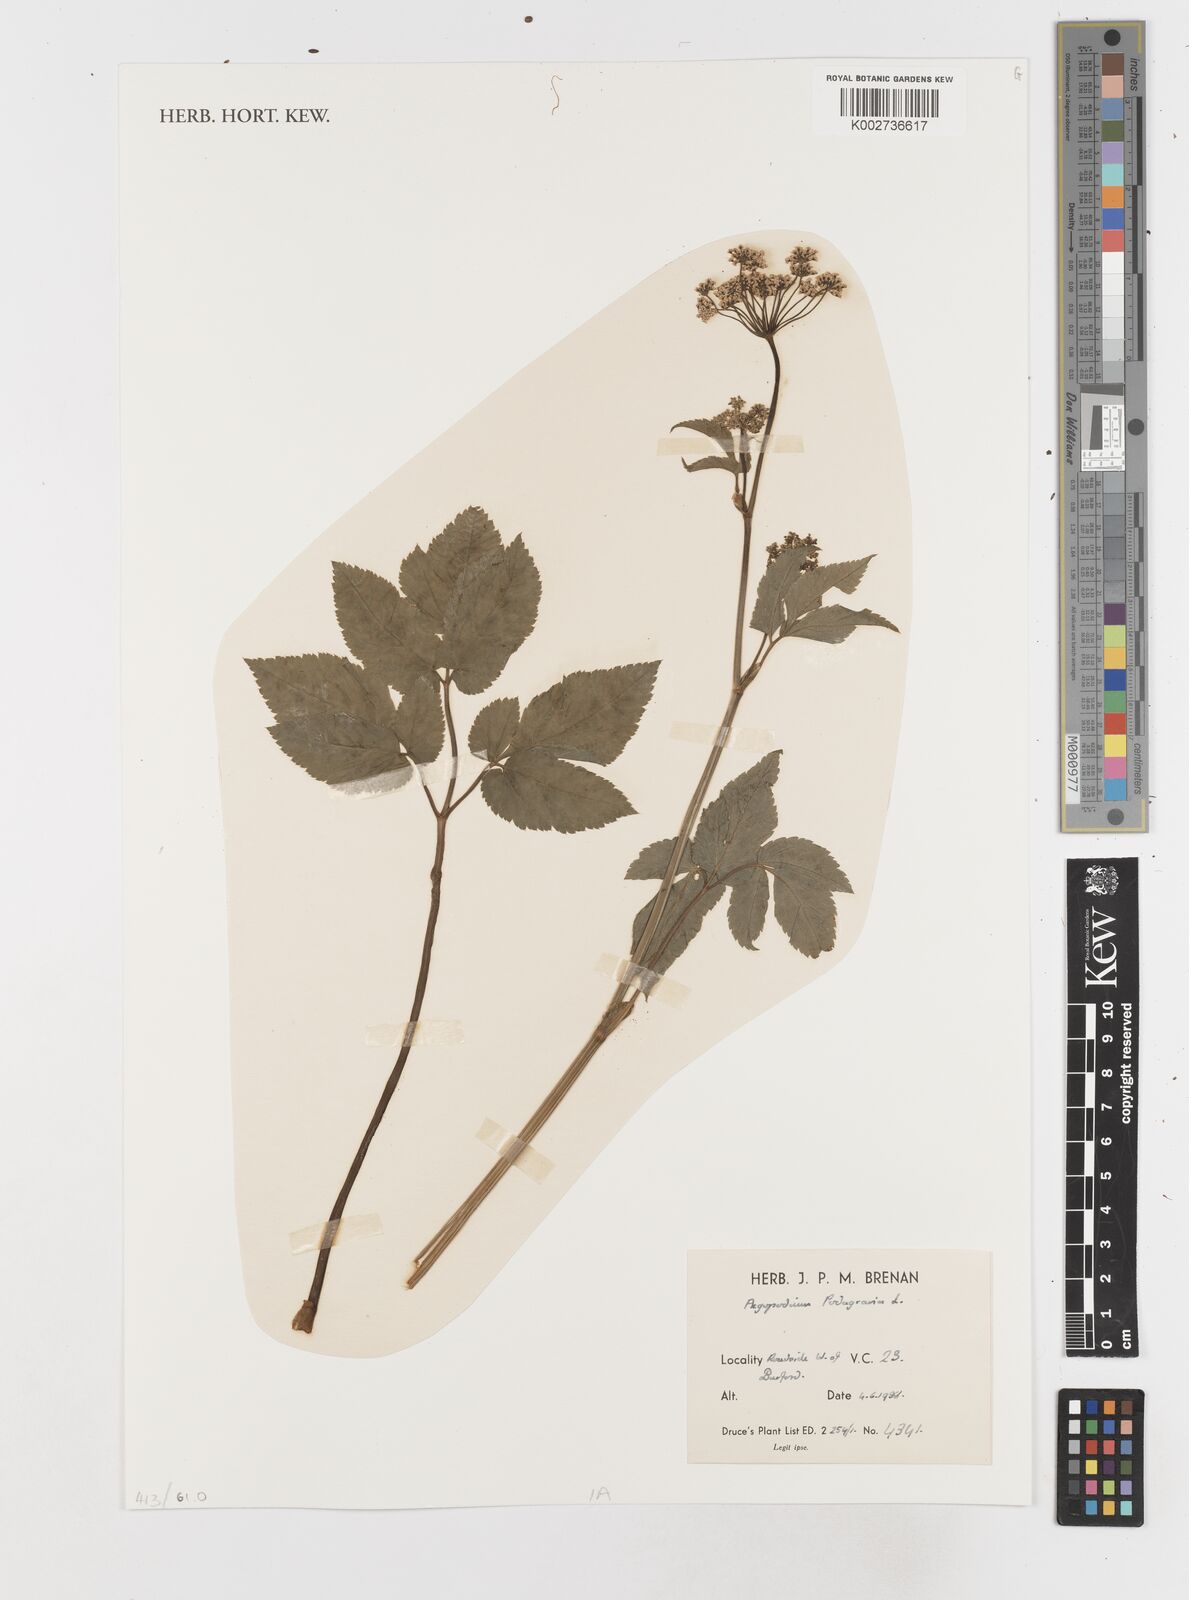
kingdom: Plantae
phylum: Tracheophyta
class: Magnoliopsida
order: Apiales
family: Apiaceae
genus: Aegopodium
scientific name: Aegopodium podagraria
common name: Ground-elder
